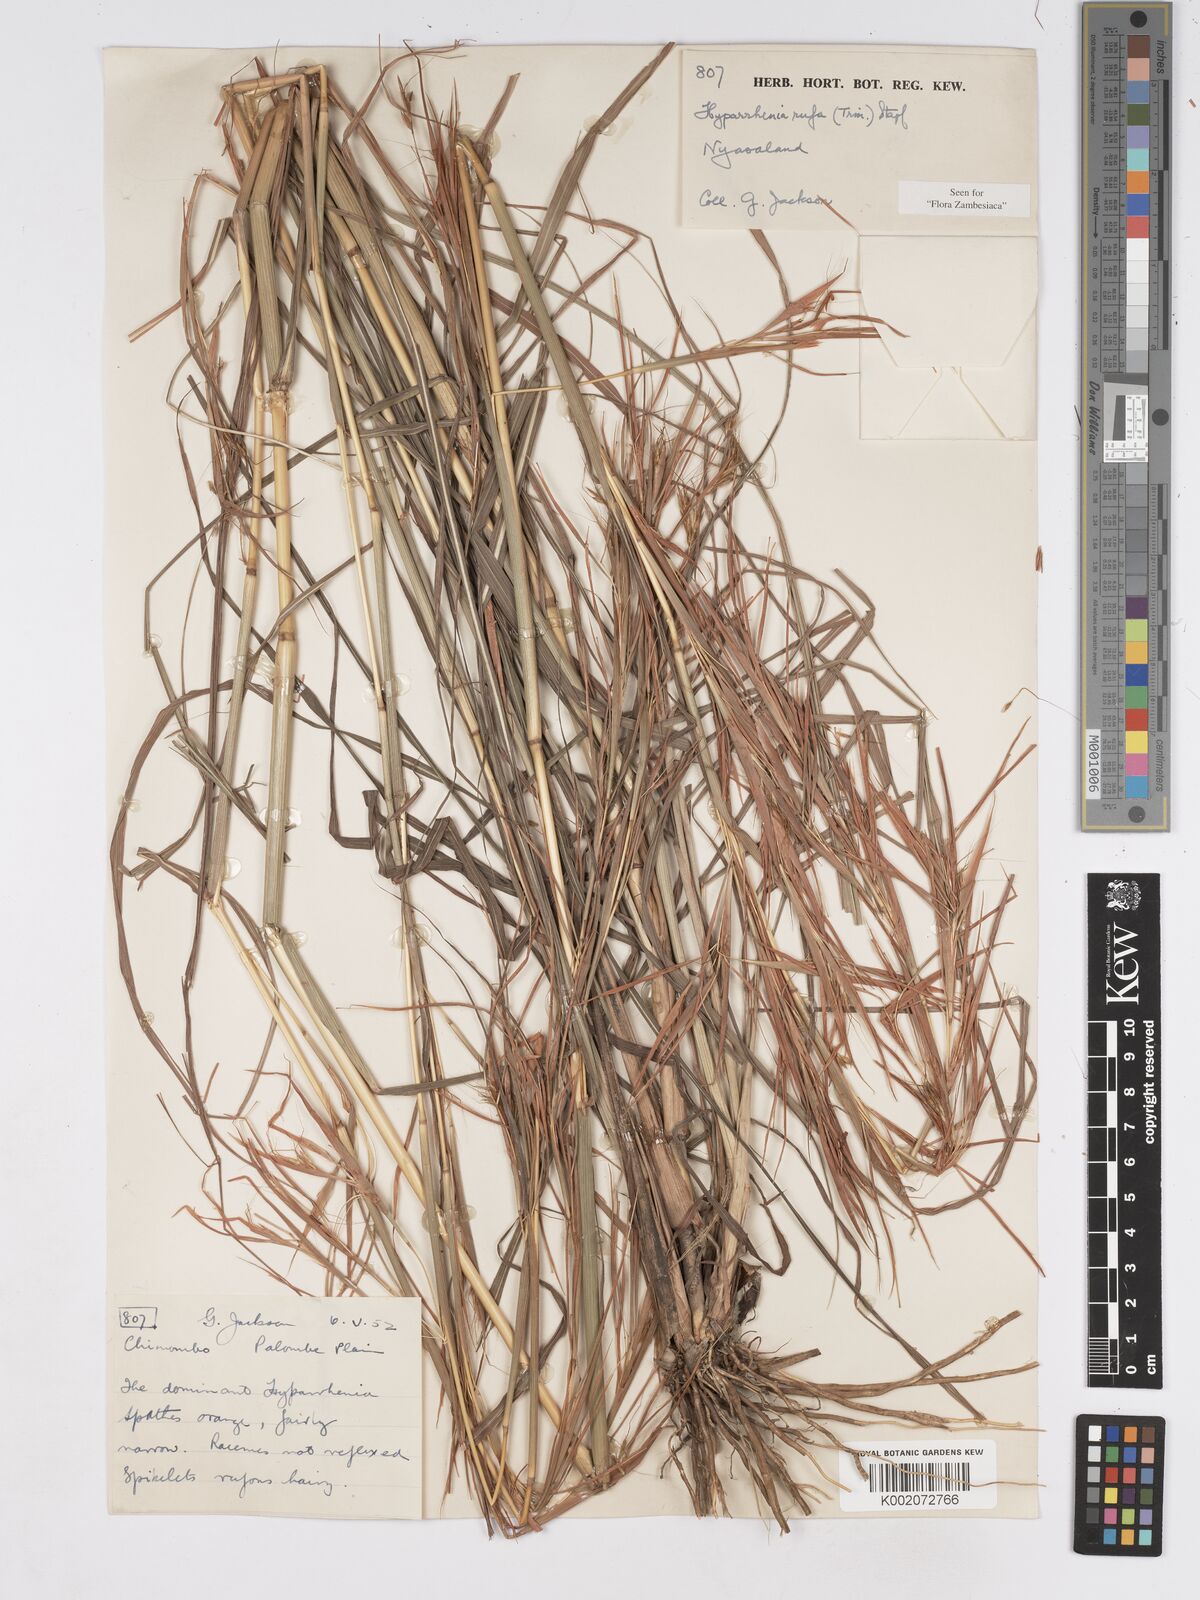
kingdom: Plantae
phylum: Tracheophyta
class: Liliopsida
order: Poales
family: Poaceae
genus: Hyparrhenia
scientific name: Hyparrhenia rufa
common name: Jaraguagrass
